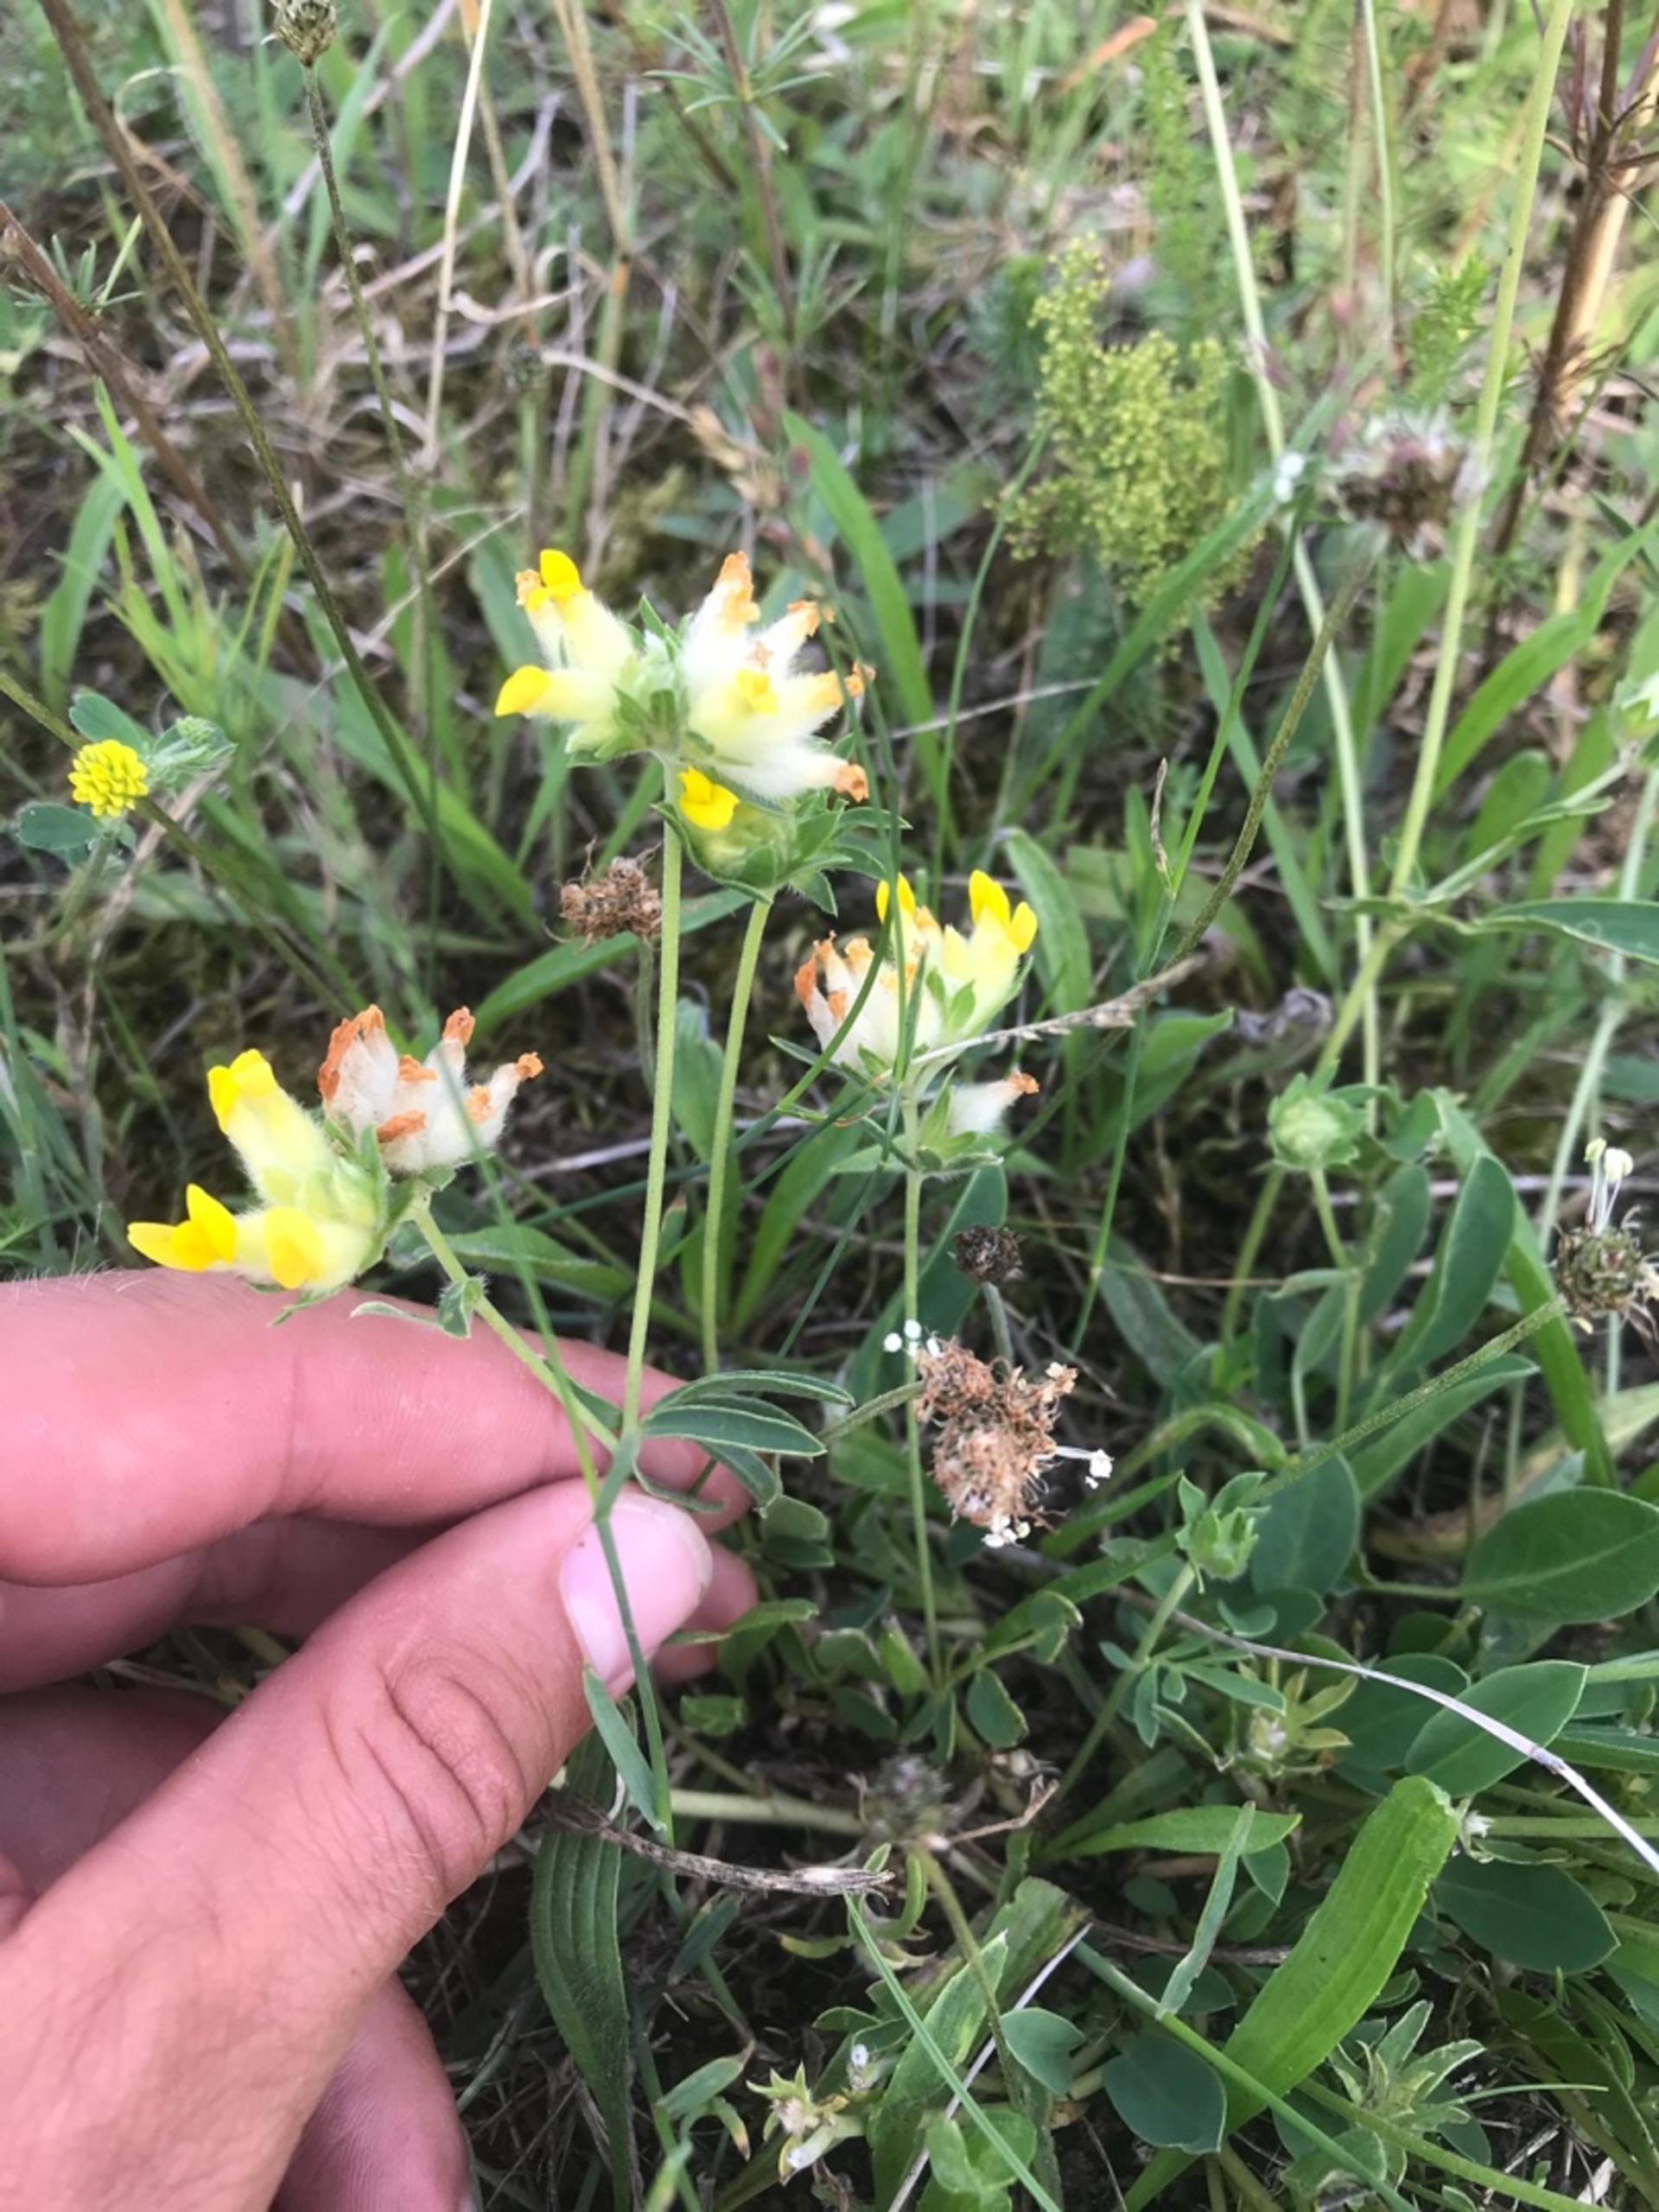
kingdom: Plantae
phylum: Tracheophyta
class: Magnoliopsida
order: Fabales
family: Fabaceae
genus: Anthyllis
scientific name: Anthyllis vulneraria
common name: Rundbælg
